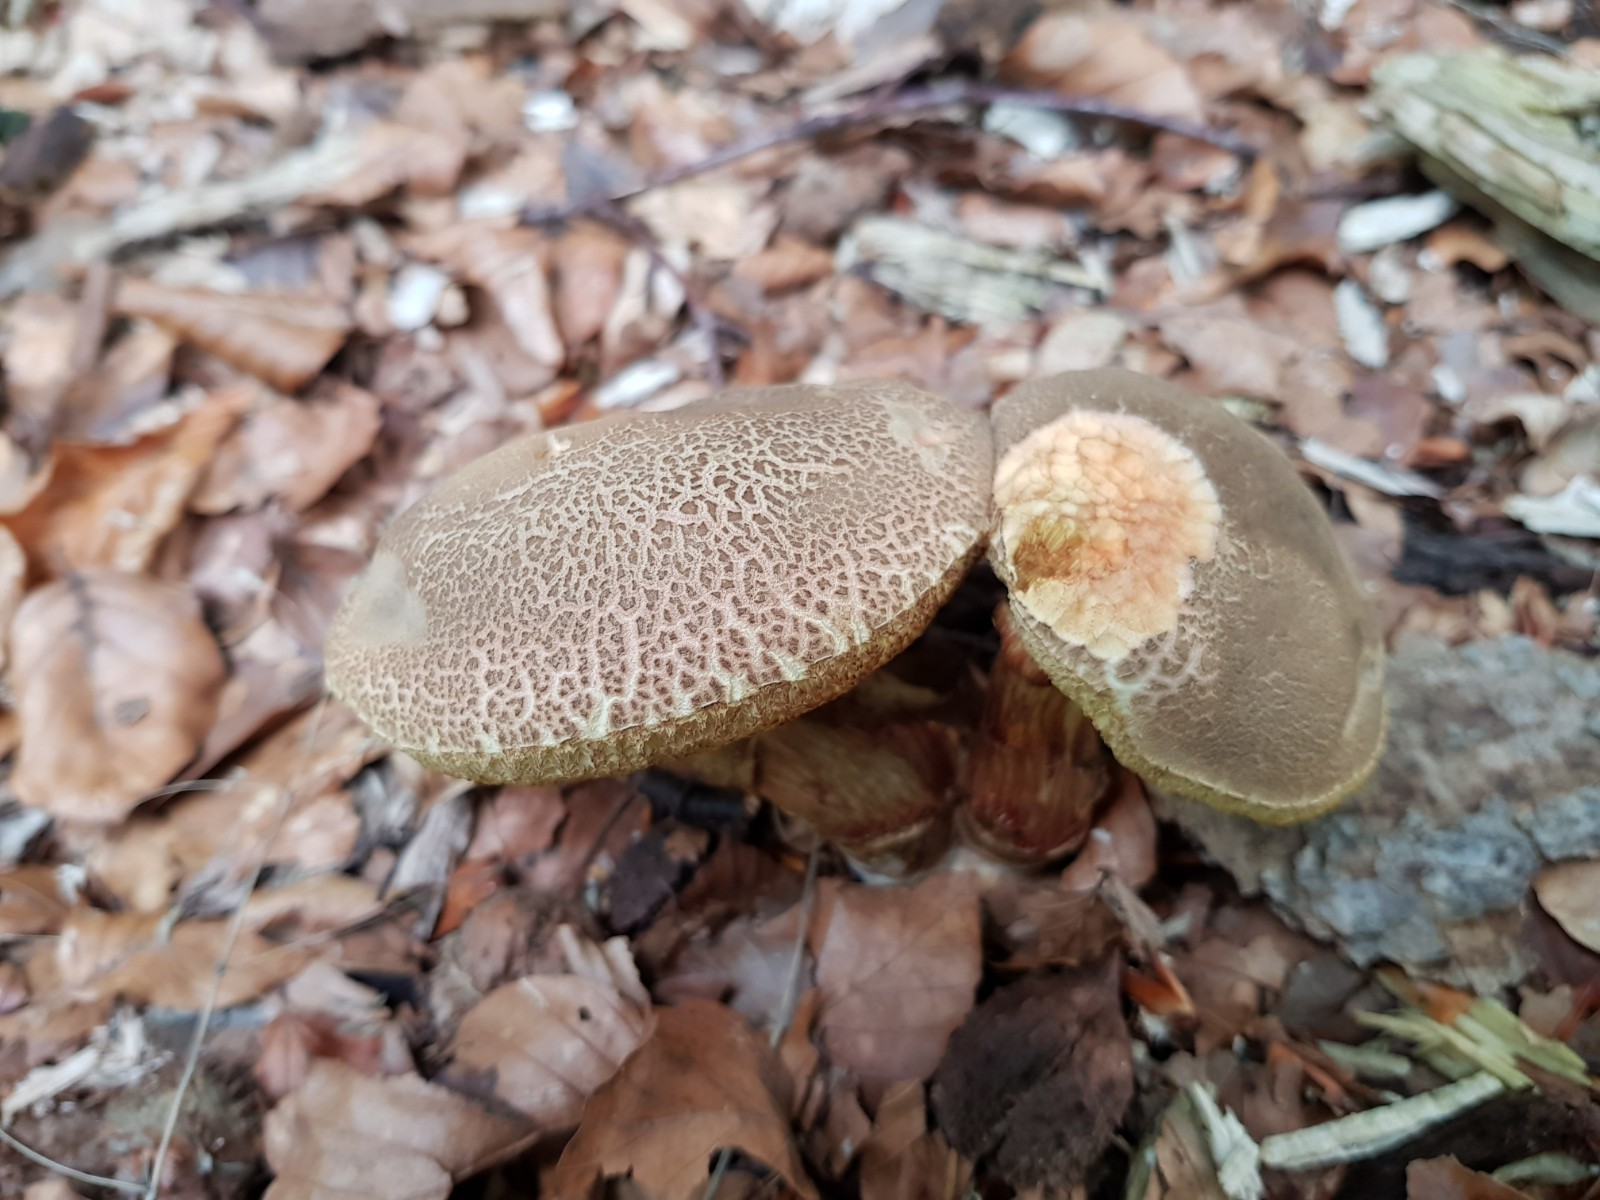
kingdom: Fungi
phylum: Basidiomycota
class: Agaricomycetes
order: Boletales
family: Boletaceae
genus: Xerocomellus
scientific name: Xerocomellus chrysenteron
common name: rødsprukken rørhat
